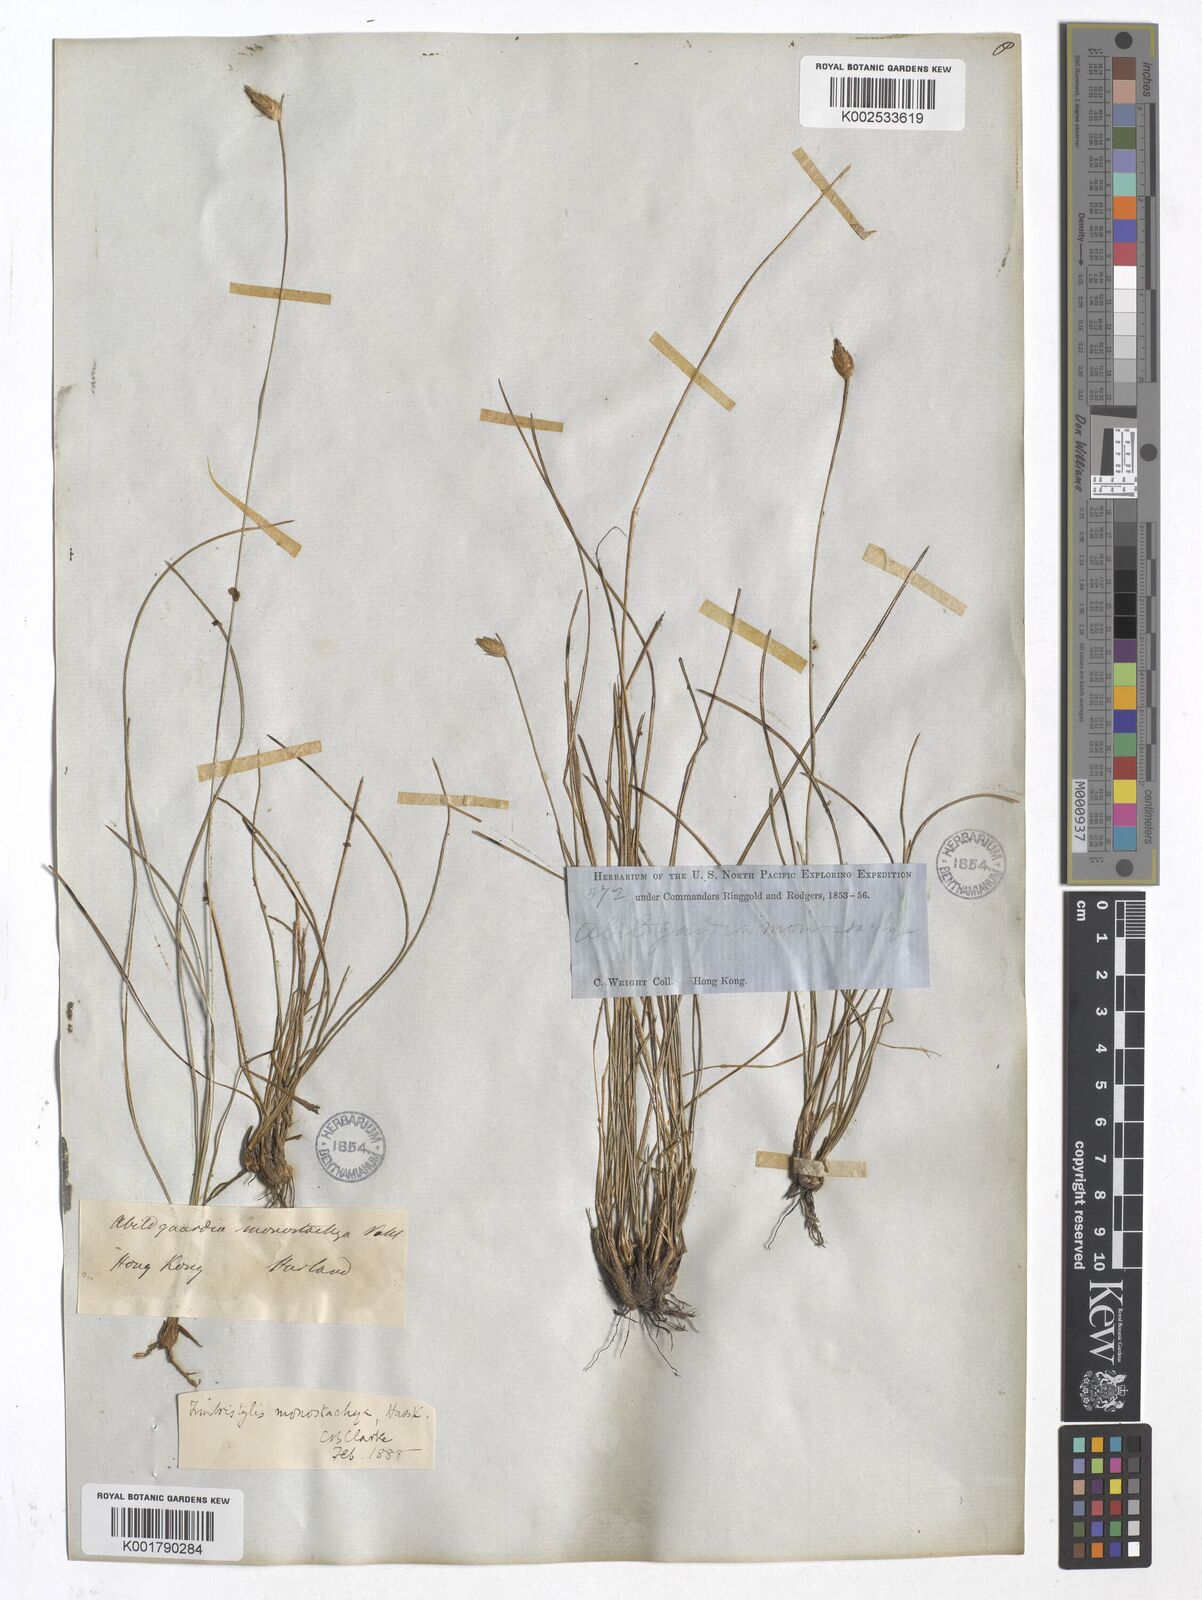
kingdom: Plantae
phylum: Tracheophyta
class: Liliopsida
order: Poales
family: Cyperaceae
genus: Abildgaardia
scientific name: Abildgaardia
